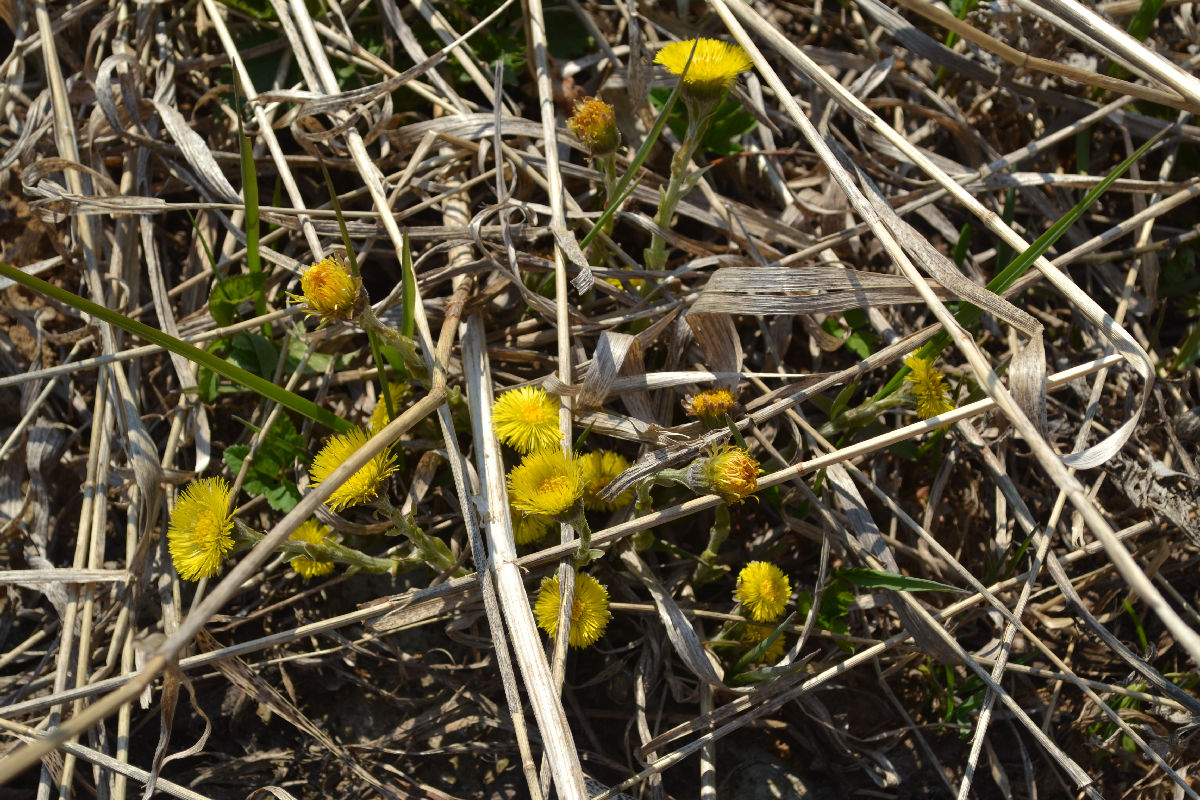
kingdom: Plantae
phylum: Tracheophyta
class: Magnoliopsida
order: Asterales
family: Asteraceae
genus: Tussilago
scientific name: Tussilago farfara
